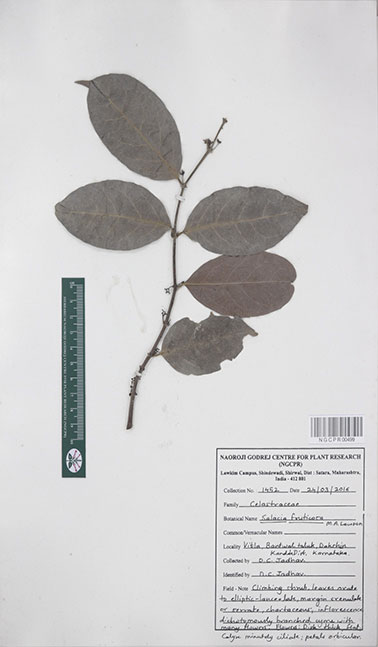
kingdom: Plantae
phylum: Tracheophyta
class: Magnoliopsida
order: Celastrales
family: Celastraceae
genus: Salacia
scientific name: Salacia fruticosa
